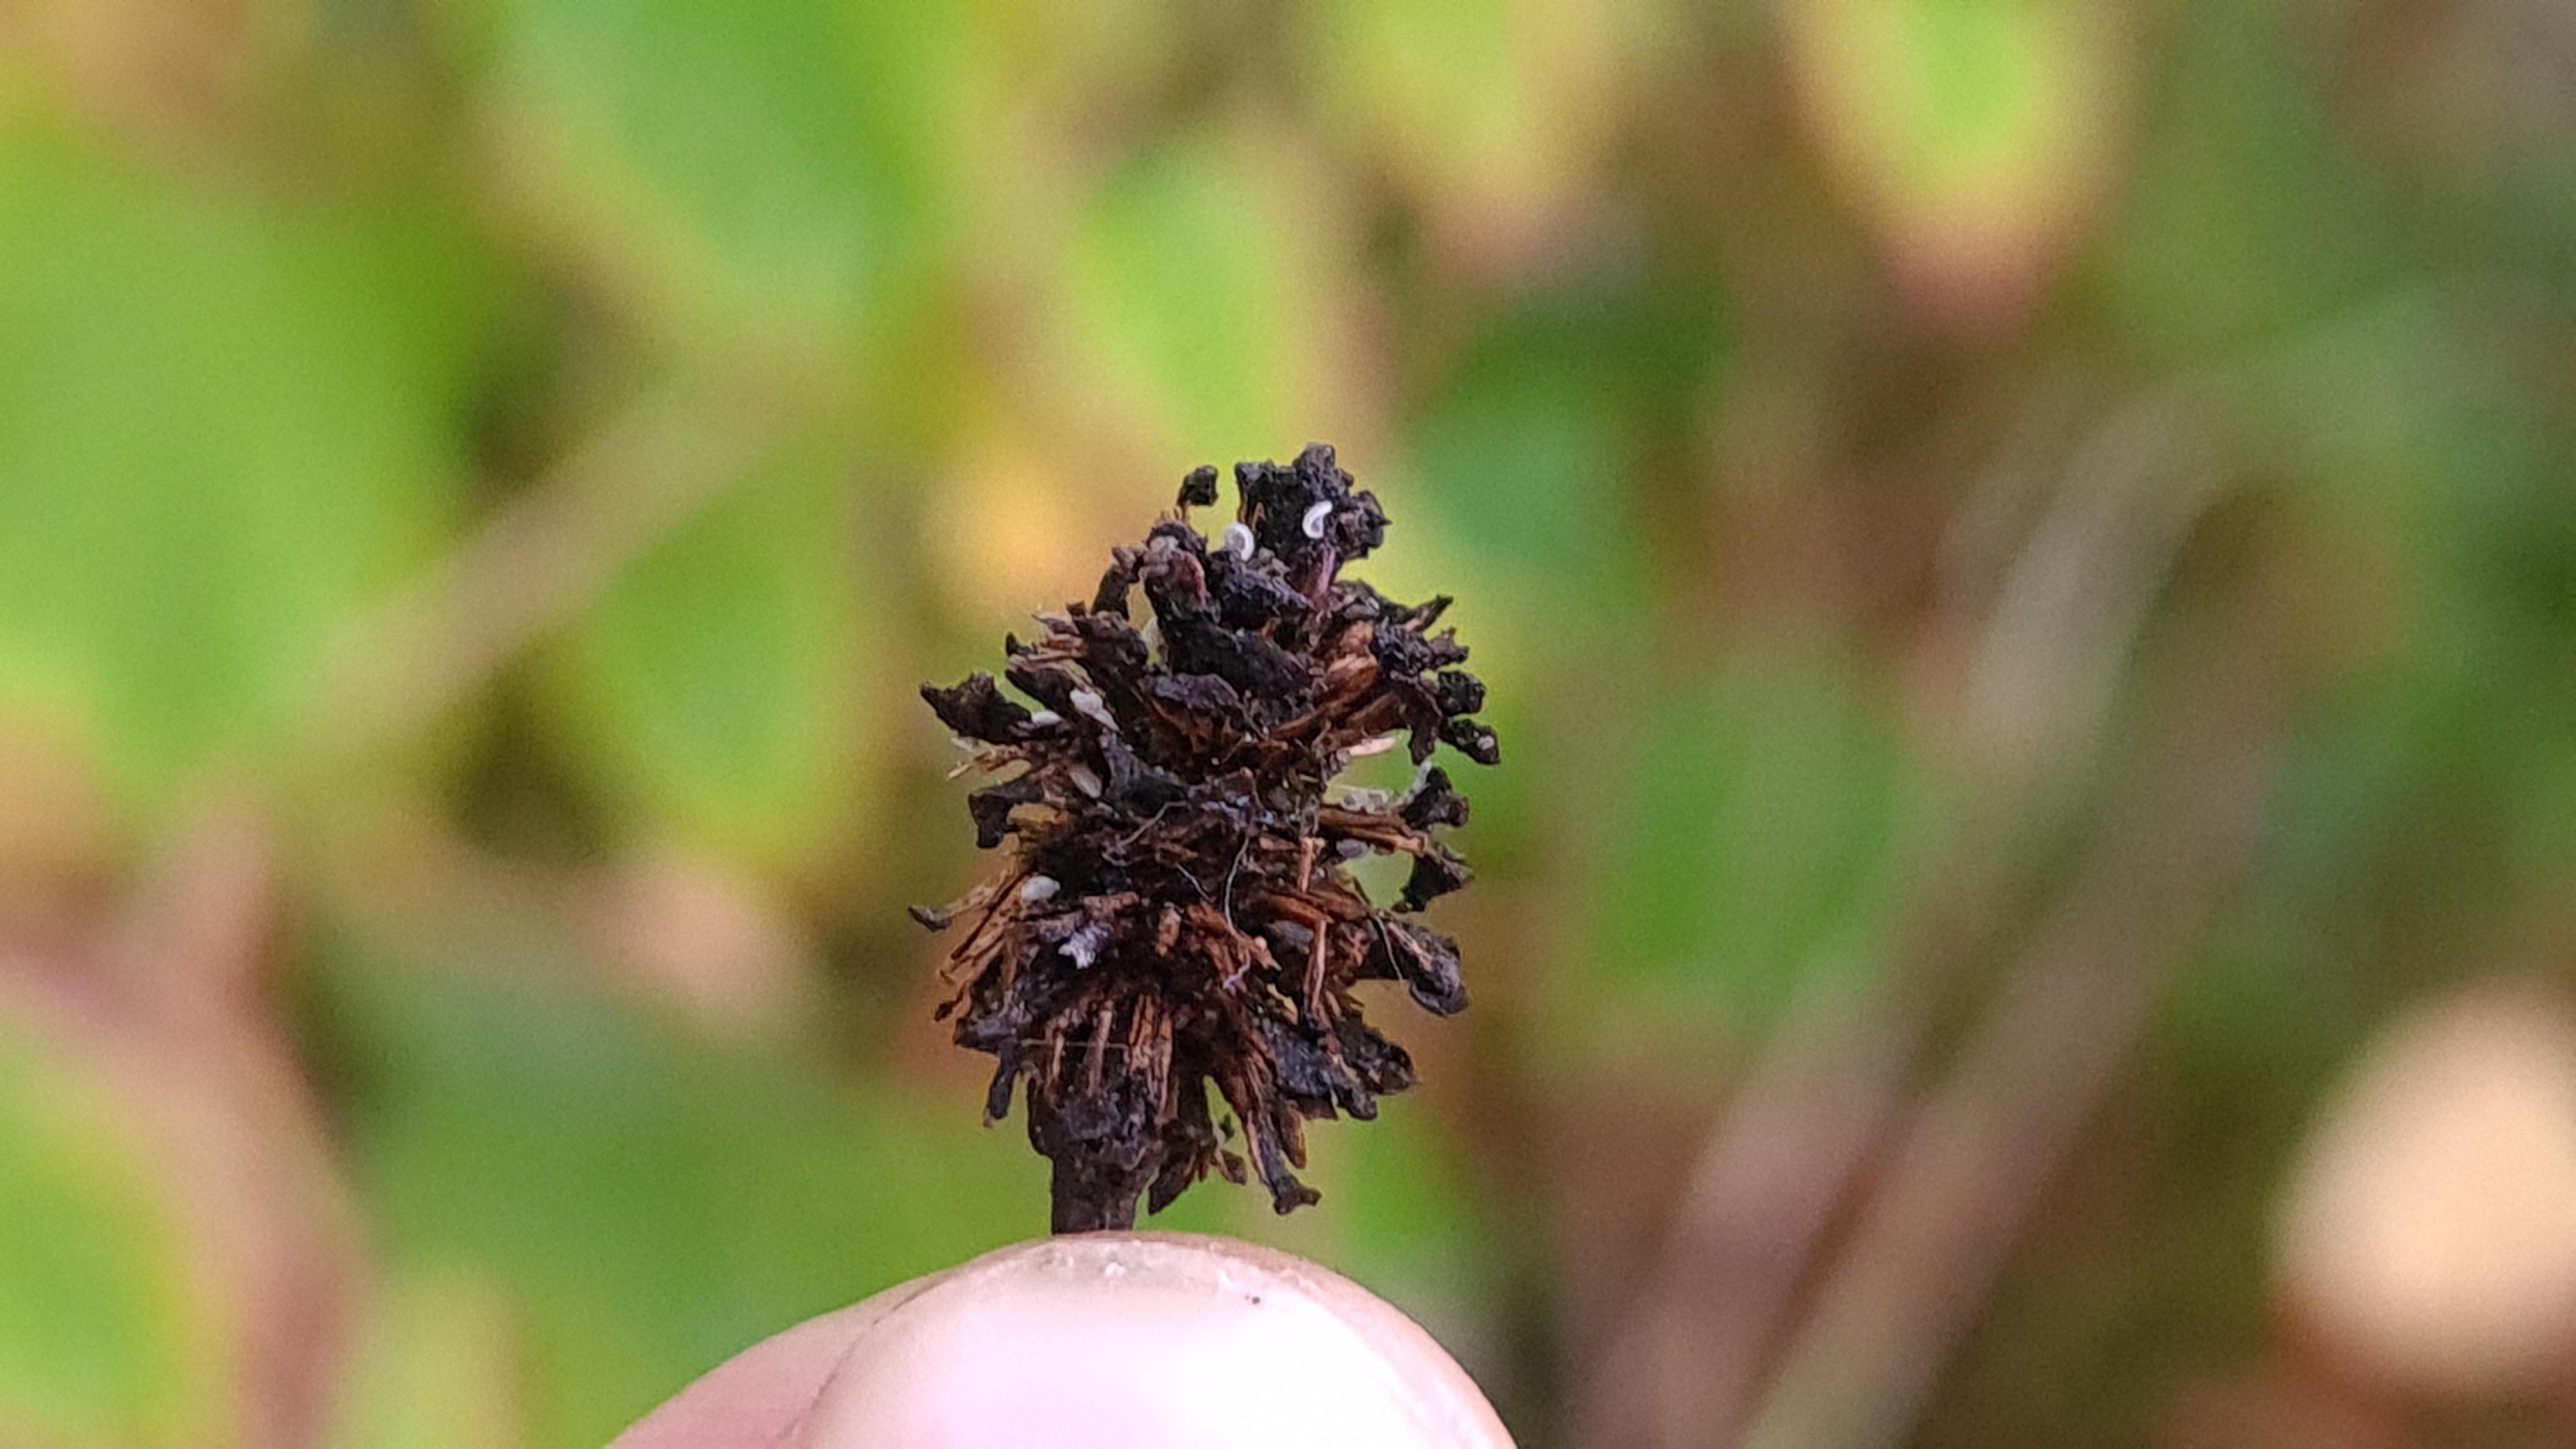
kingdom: Fungi
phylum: Ascomycota
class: Leotiomycetes
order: Helotiales
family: Mollisiaceae
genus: Mollisia
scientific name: Mollisia amenticola
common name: ellekogle-gråskive
